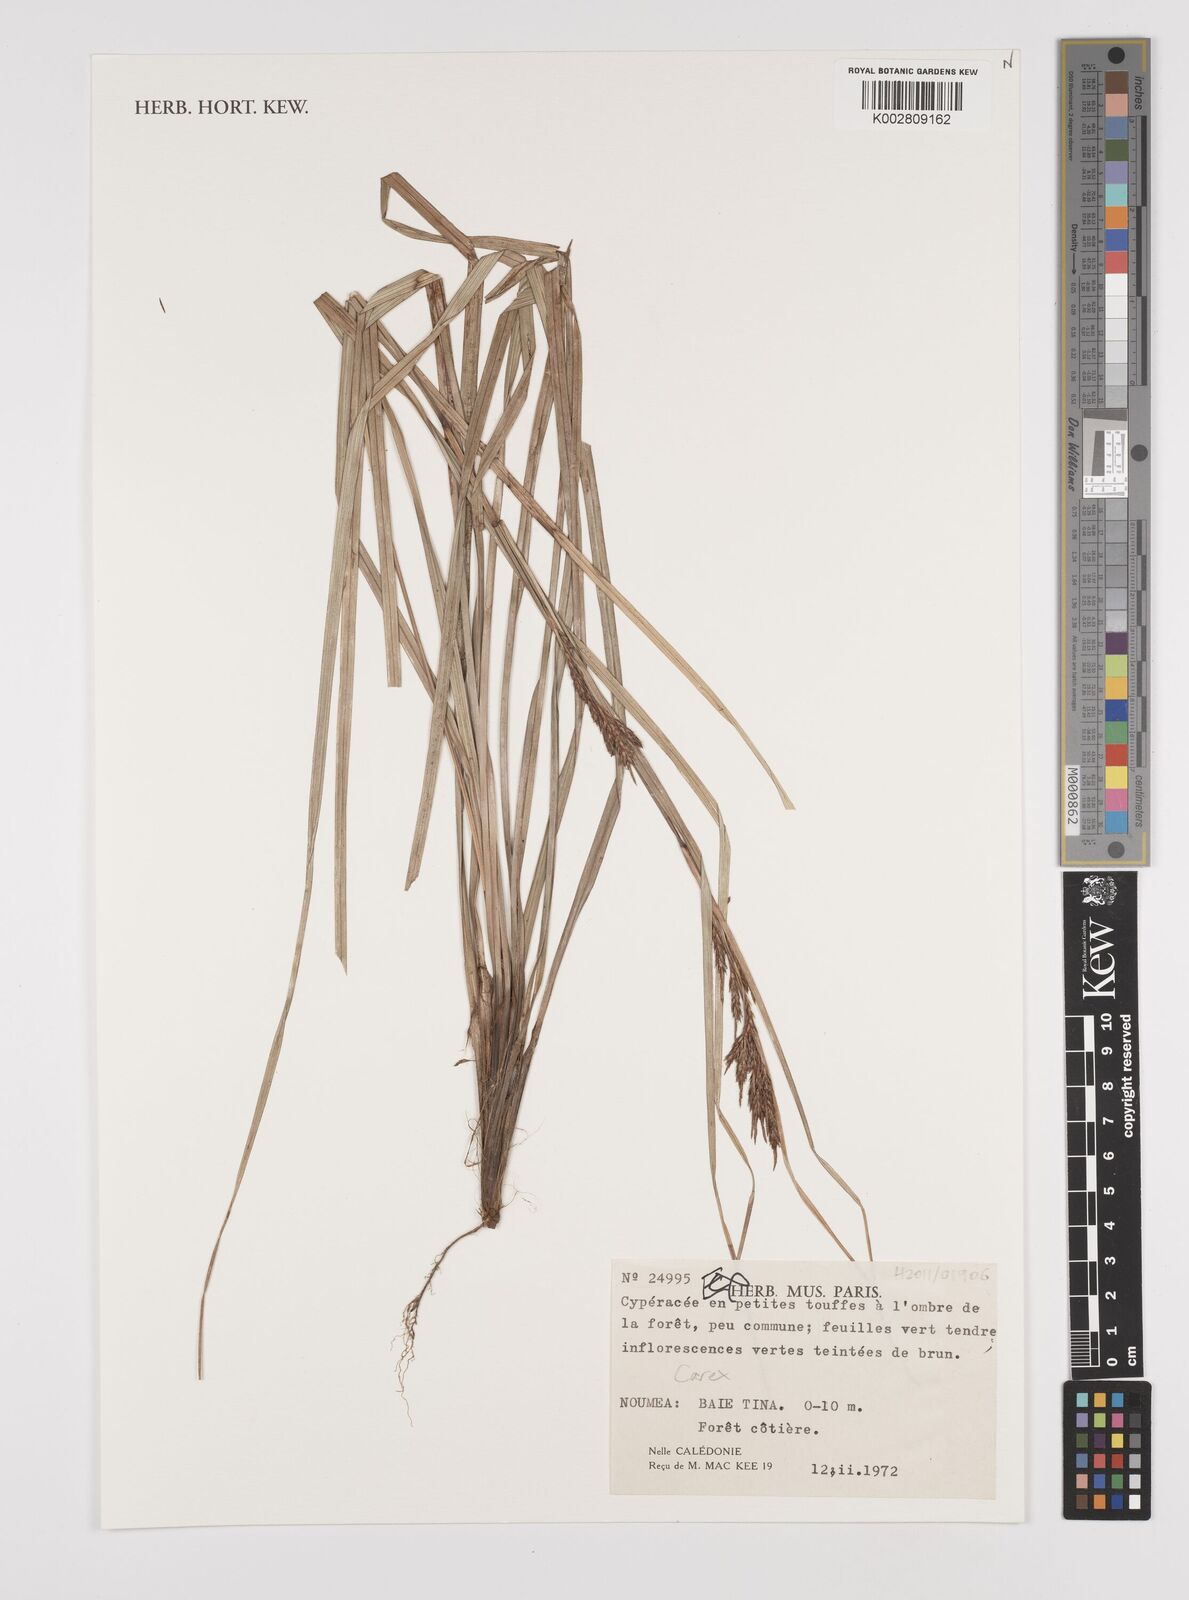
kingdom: Plantae
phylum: Tracheophyta
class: Liliopsida
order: Poales
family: Cyperaceae
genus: Carex
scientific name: Carex
